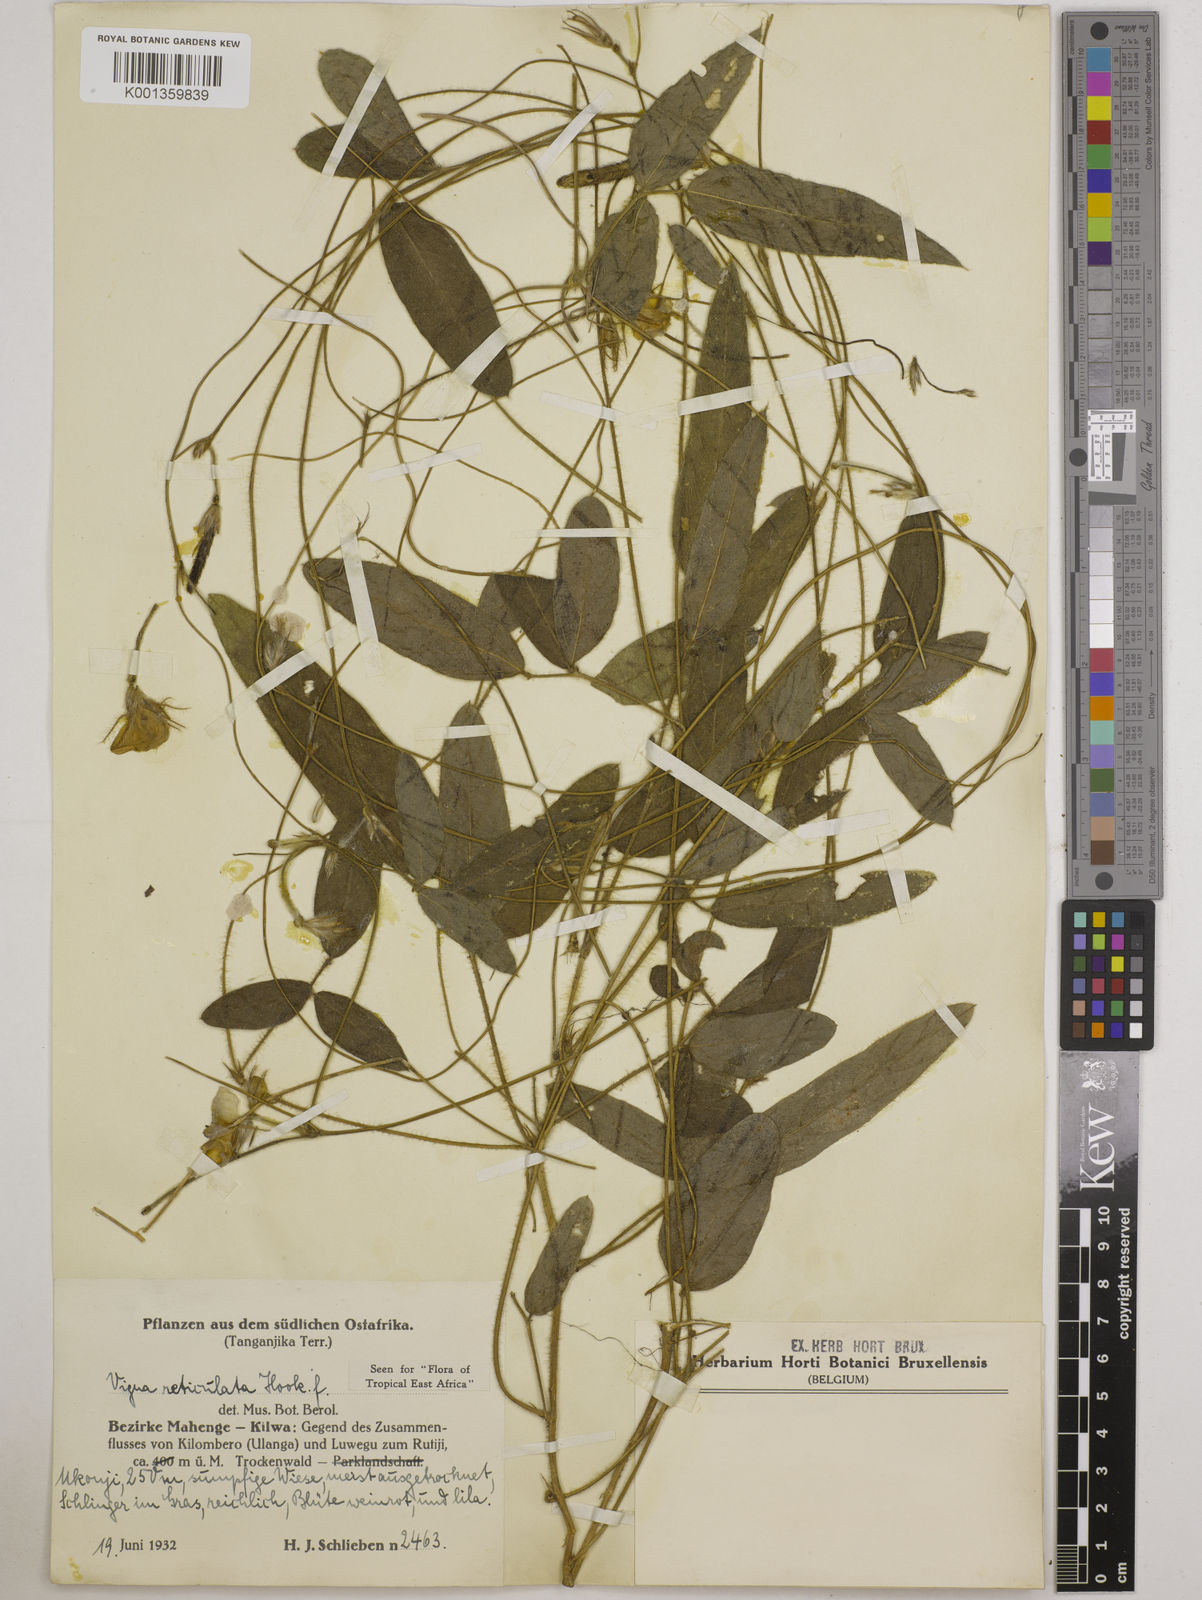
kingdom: Plantae
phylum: Tracheophyta
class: Magnoliopsida
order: Fabales
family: Fabaceae
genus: Vigna
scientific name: Vigna reticulata
